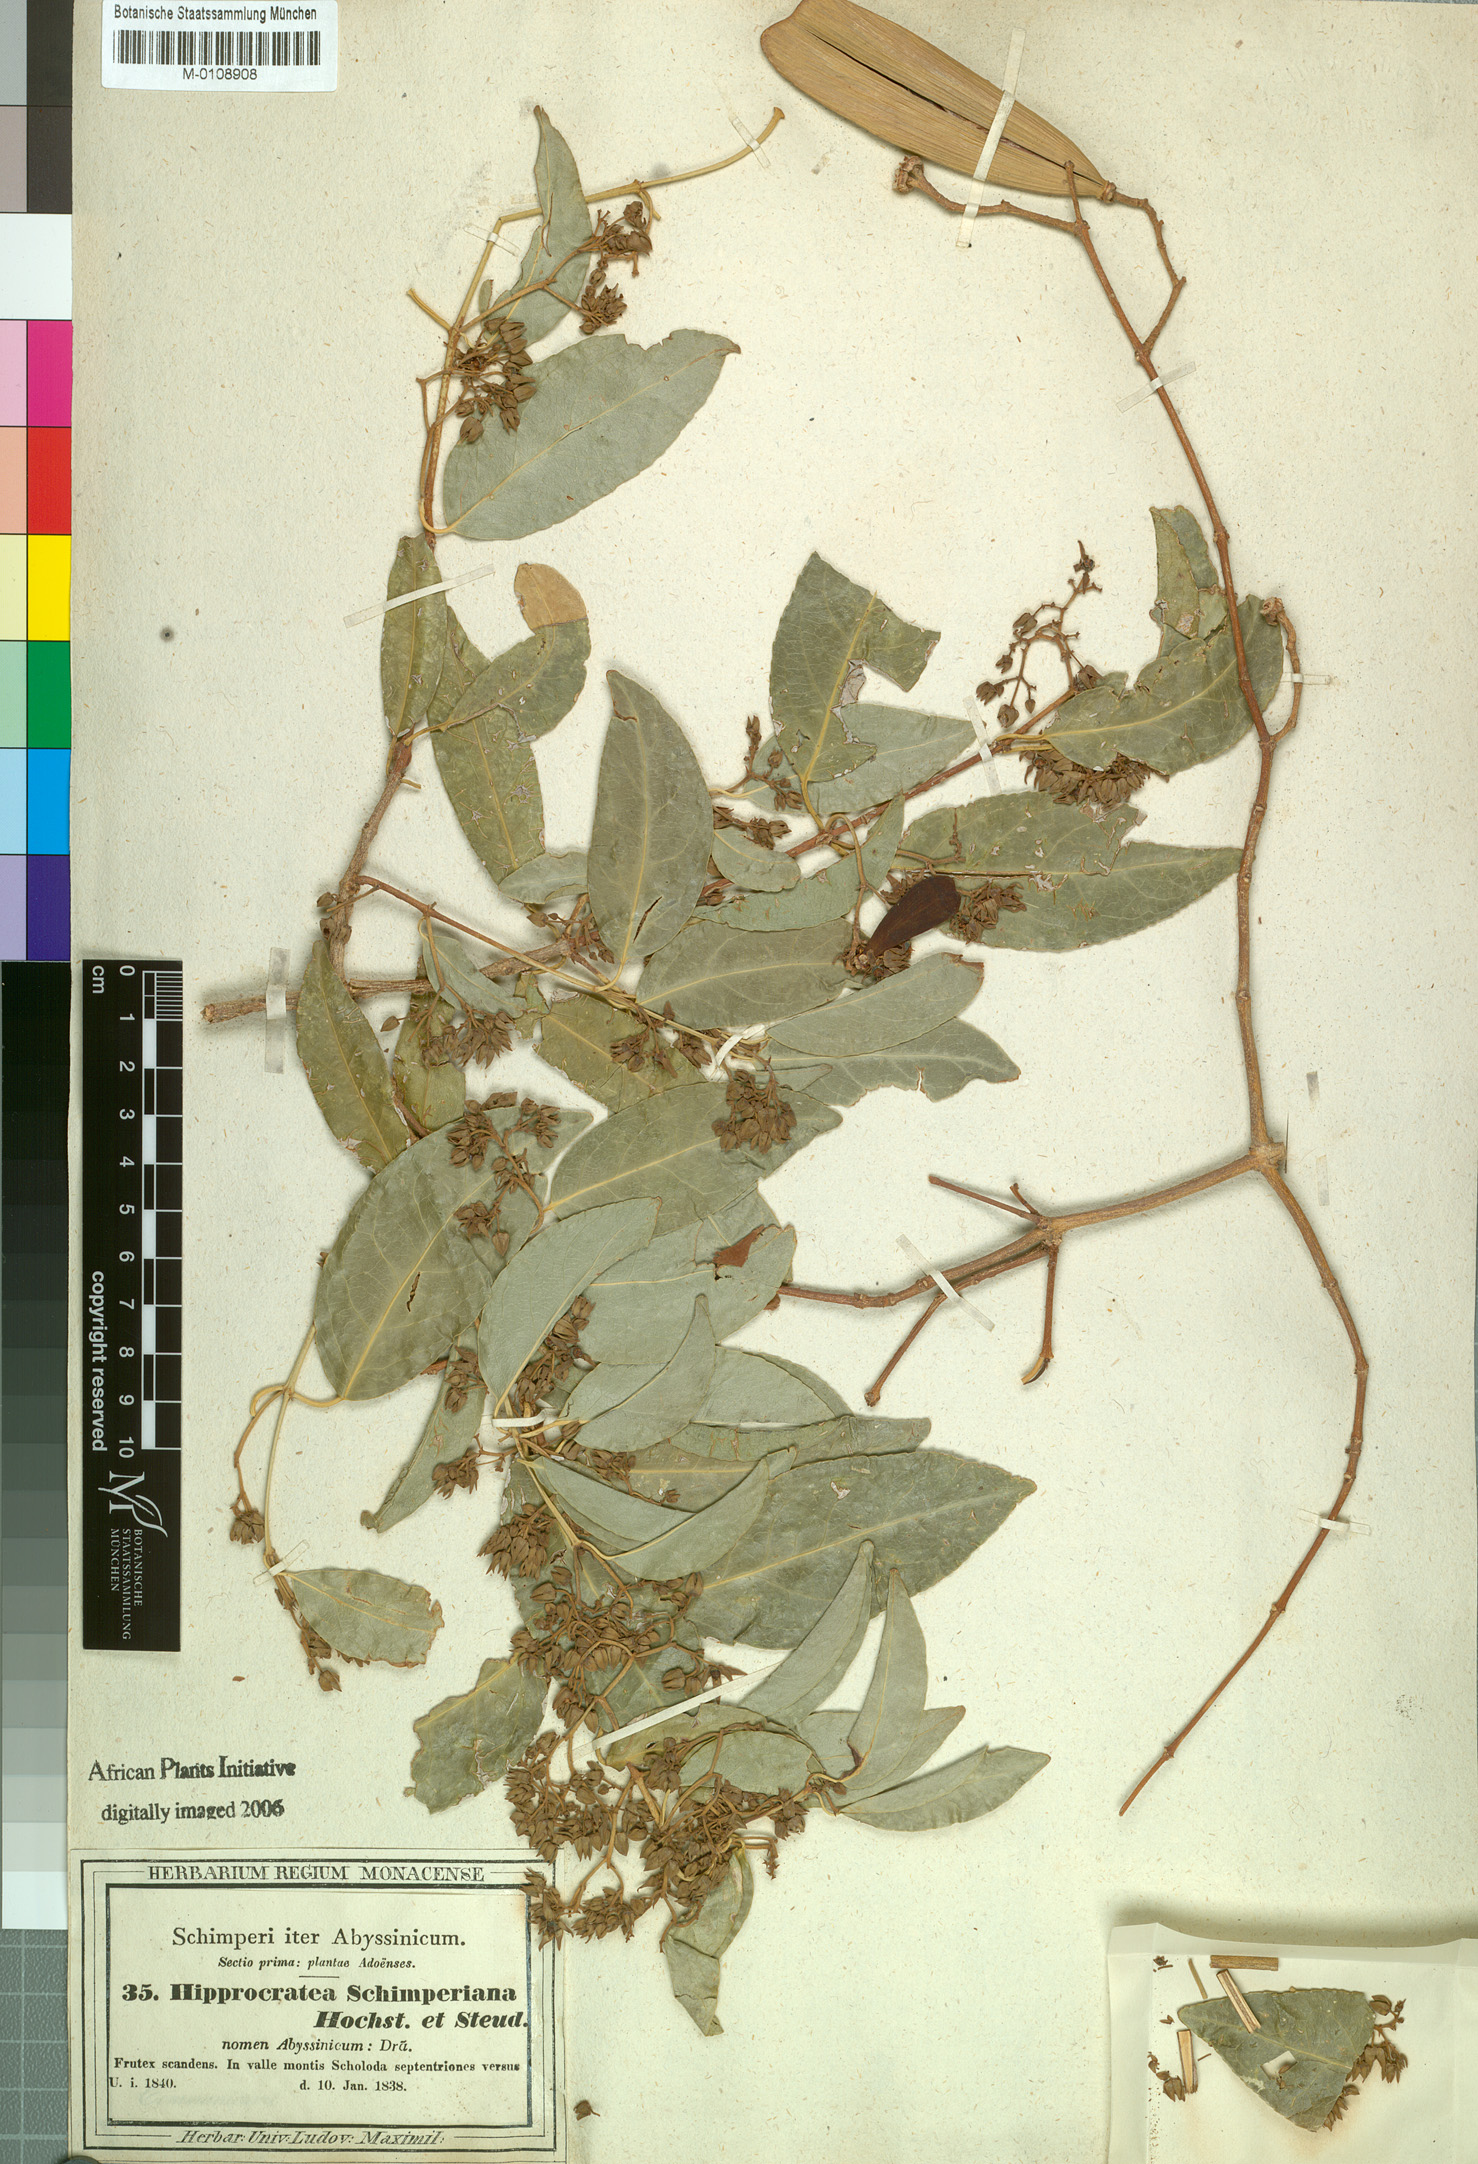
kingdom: Plantae
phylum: Tracheophyta
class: Magnoliopsida
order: Celastrales
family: Celastraceae
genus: Loeseneriella
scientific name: Loeseneriella africana
